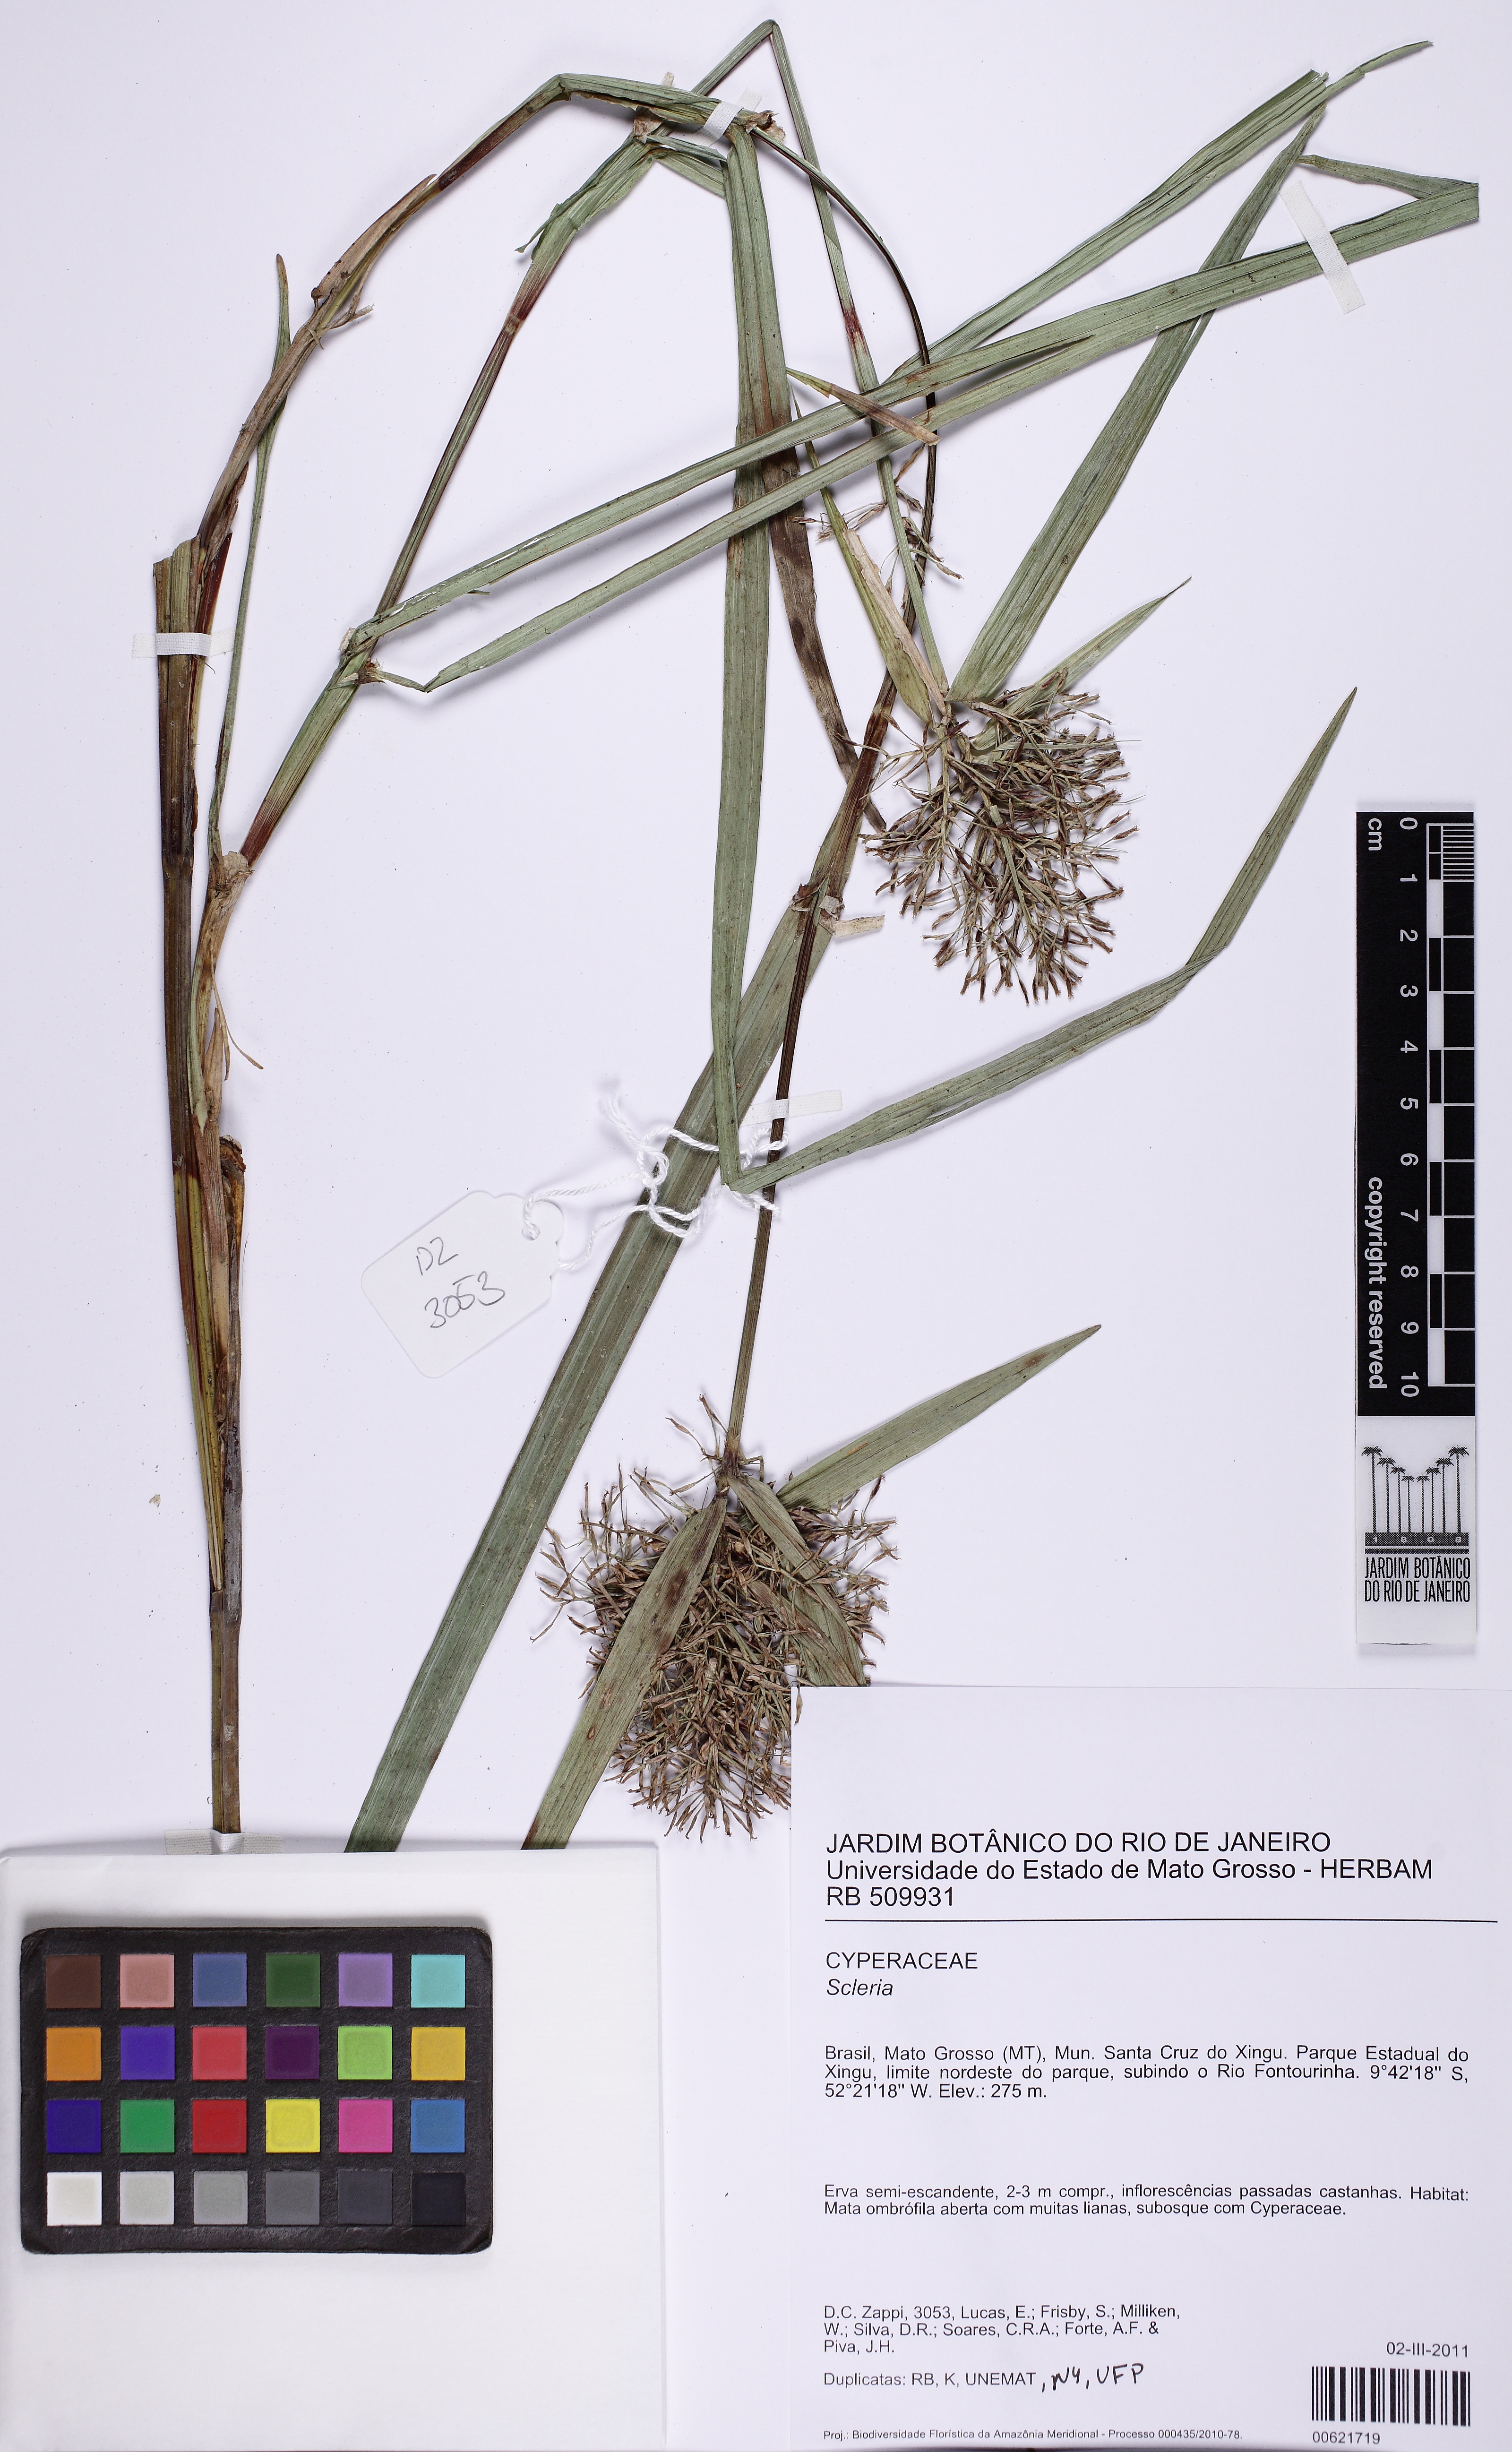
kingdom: Plantae
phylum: Tracheophyta
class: Liliopsida
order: Poales
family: Cyperaceae
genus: Scleria
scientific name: Scleria martii
